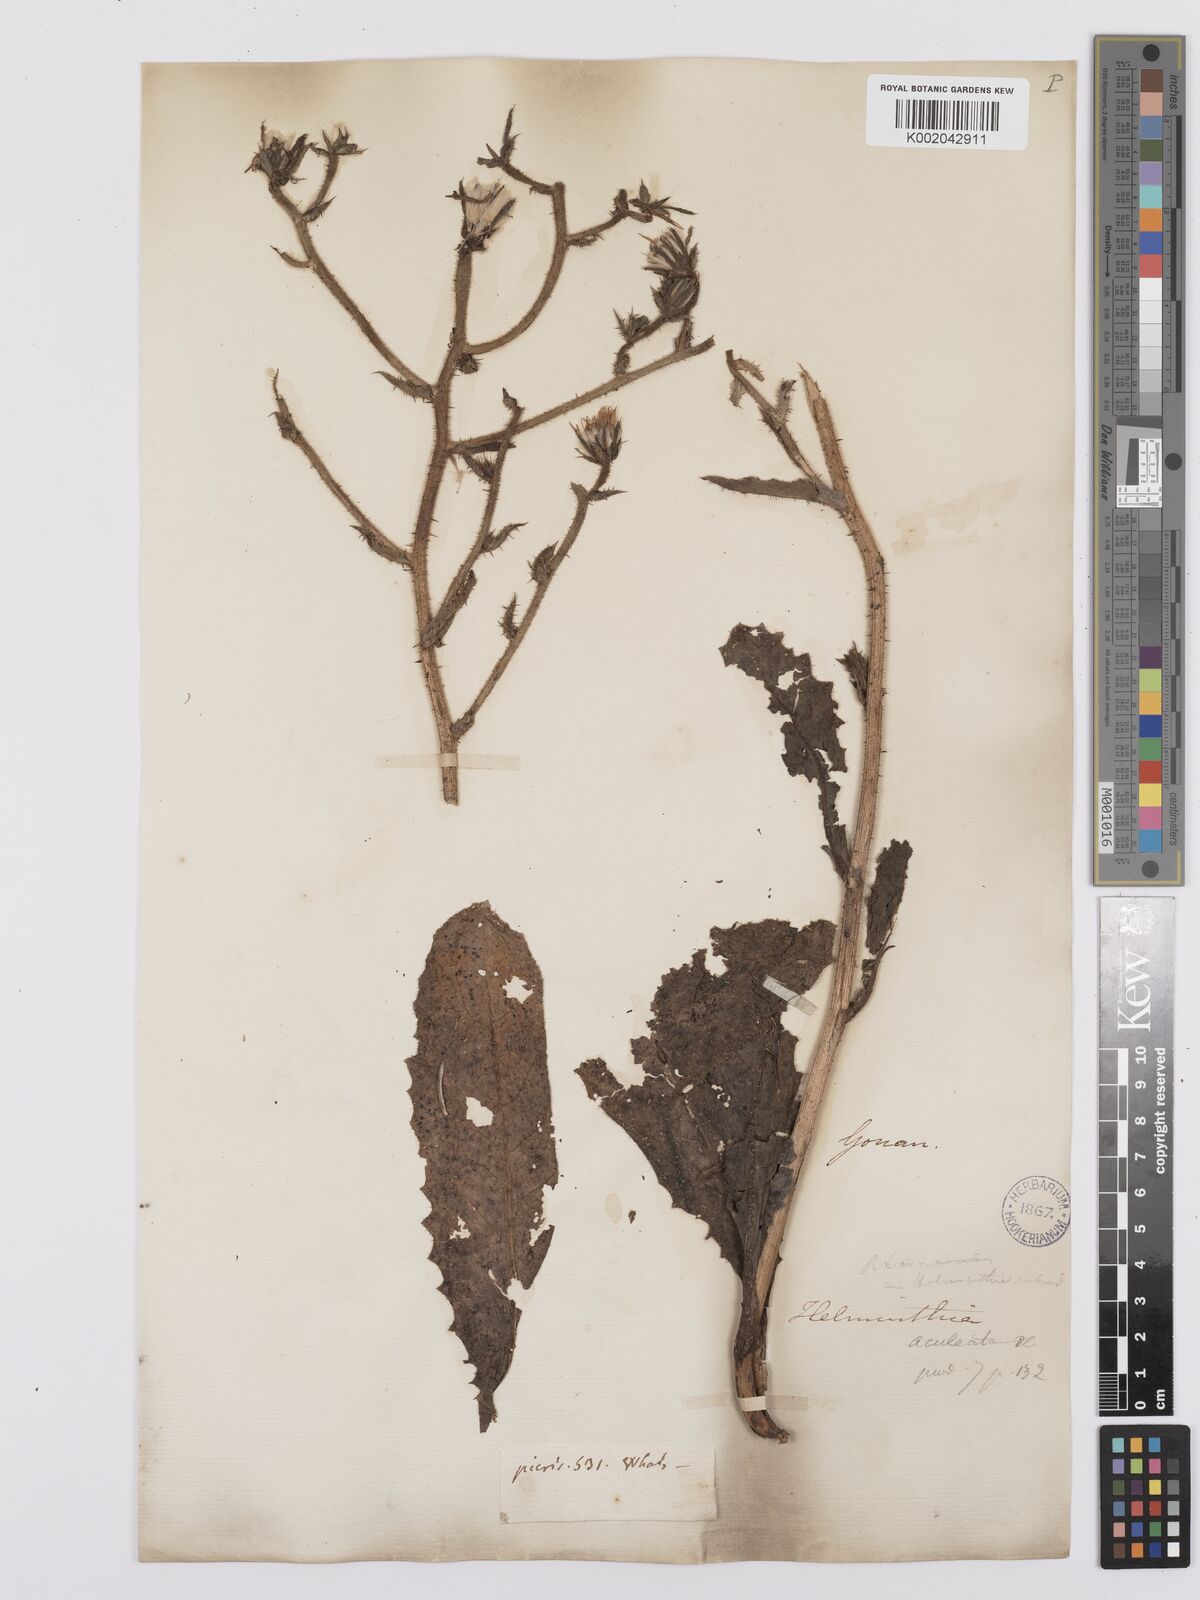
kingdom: Plantae
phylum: Tracheophyta
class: Magnoliopsida
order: Asterales
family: Asteraceae
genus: Helminthotheca
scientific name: Helminthotheca aculeata
